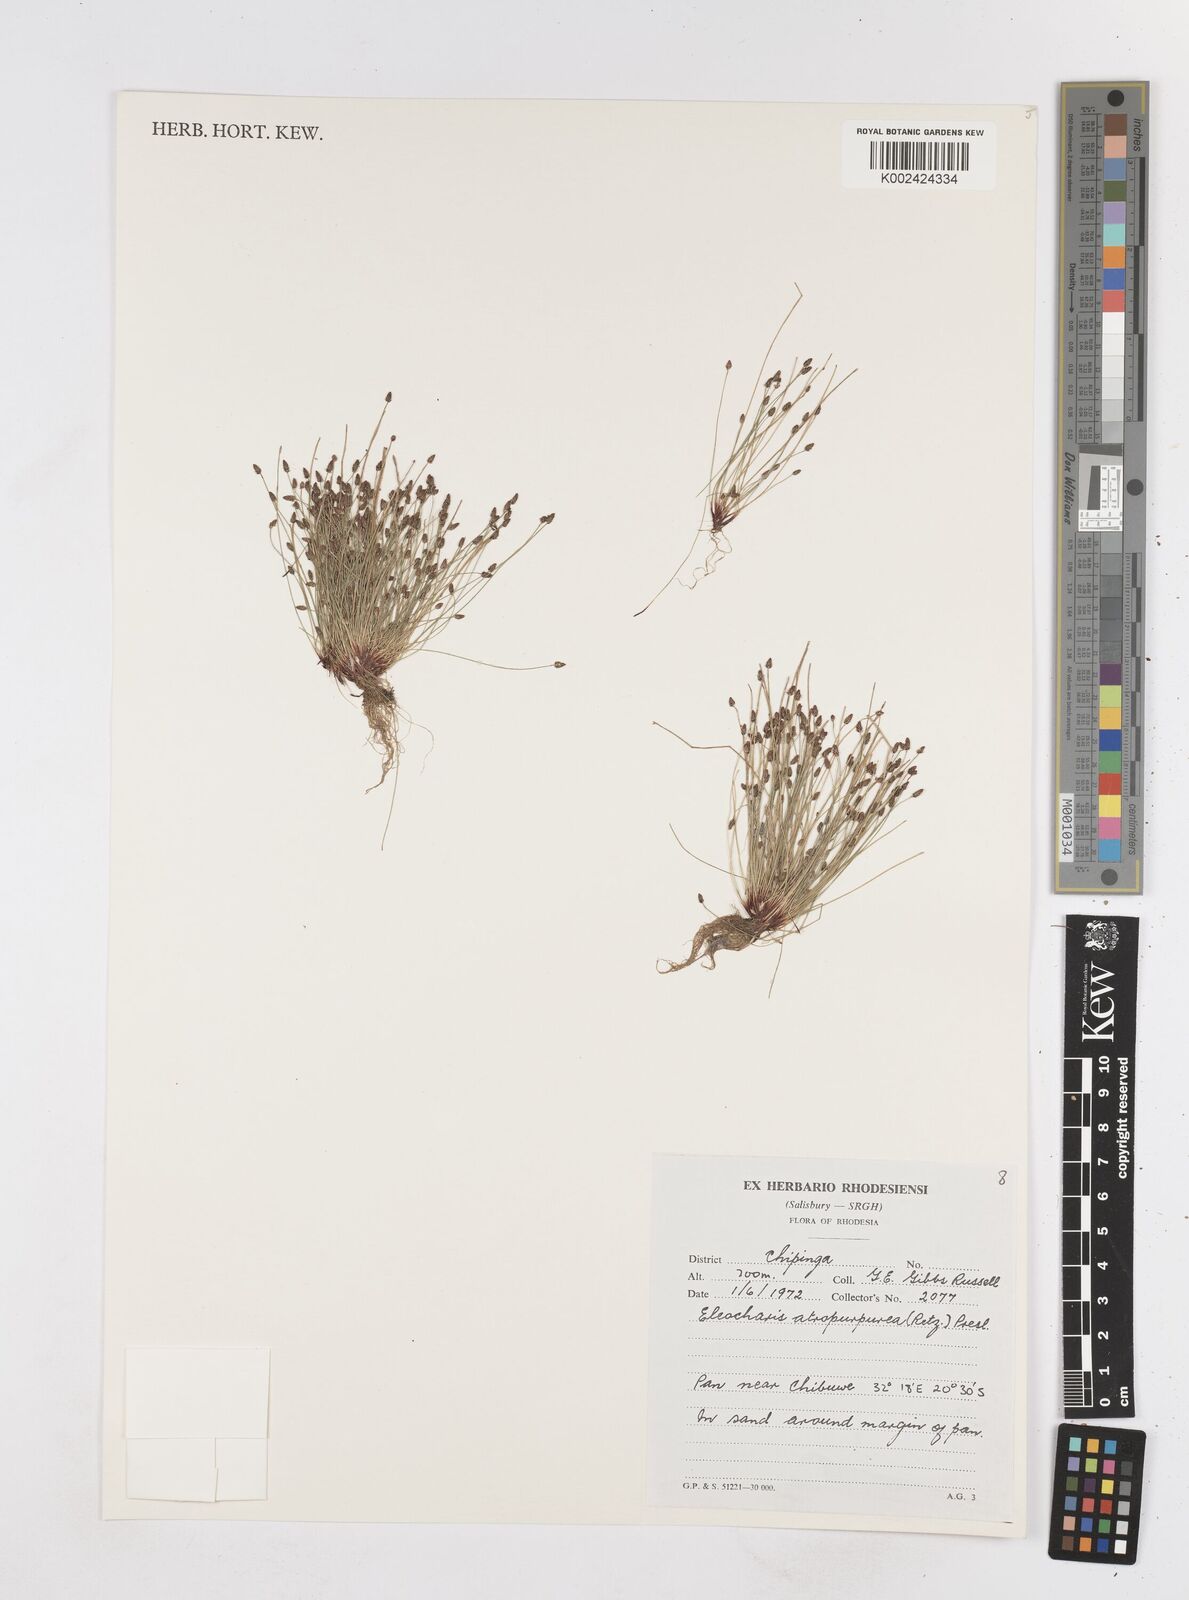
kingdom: Plantae
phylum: Tracheophyta
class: Liliopsida
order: Poales
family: Cyperaceae
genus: Eleocharis
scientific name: Eleocharis atropurpurea
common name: Purple spikerush
